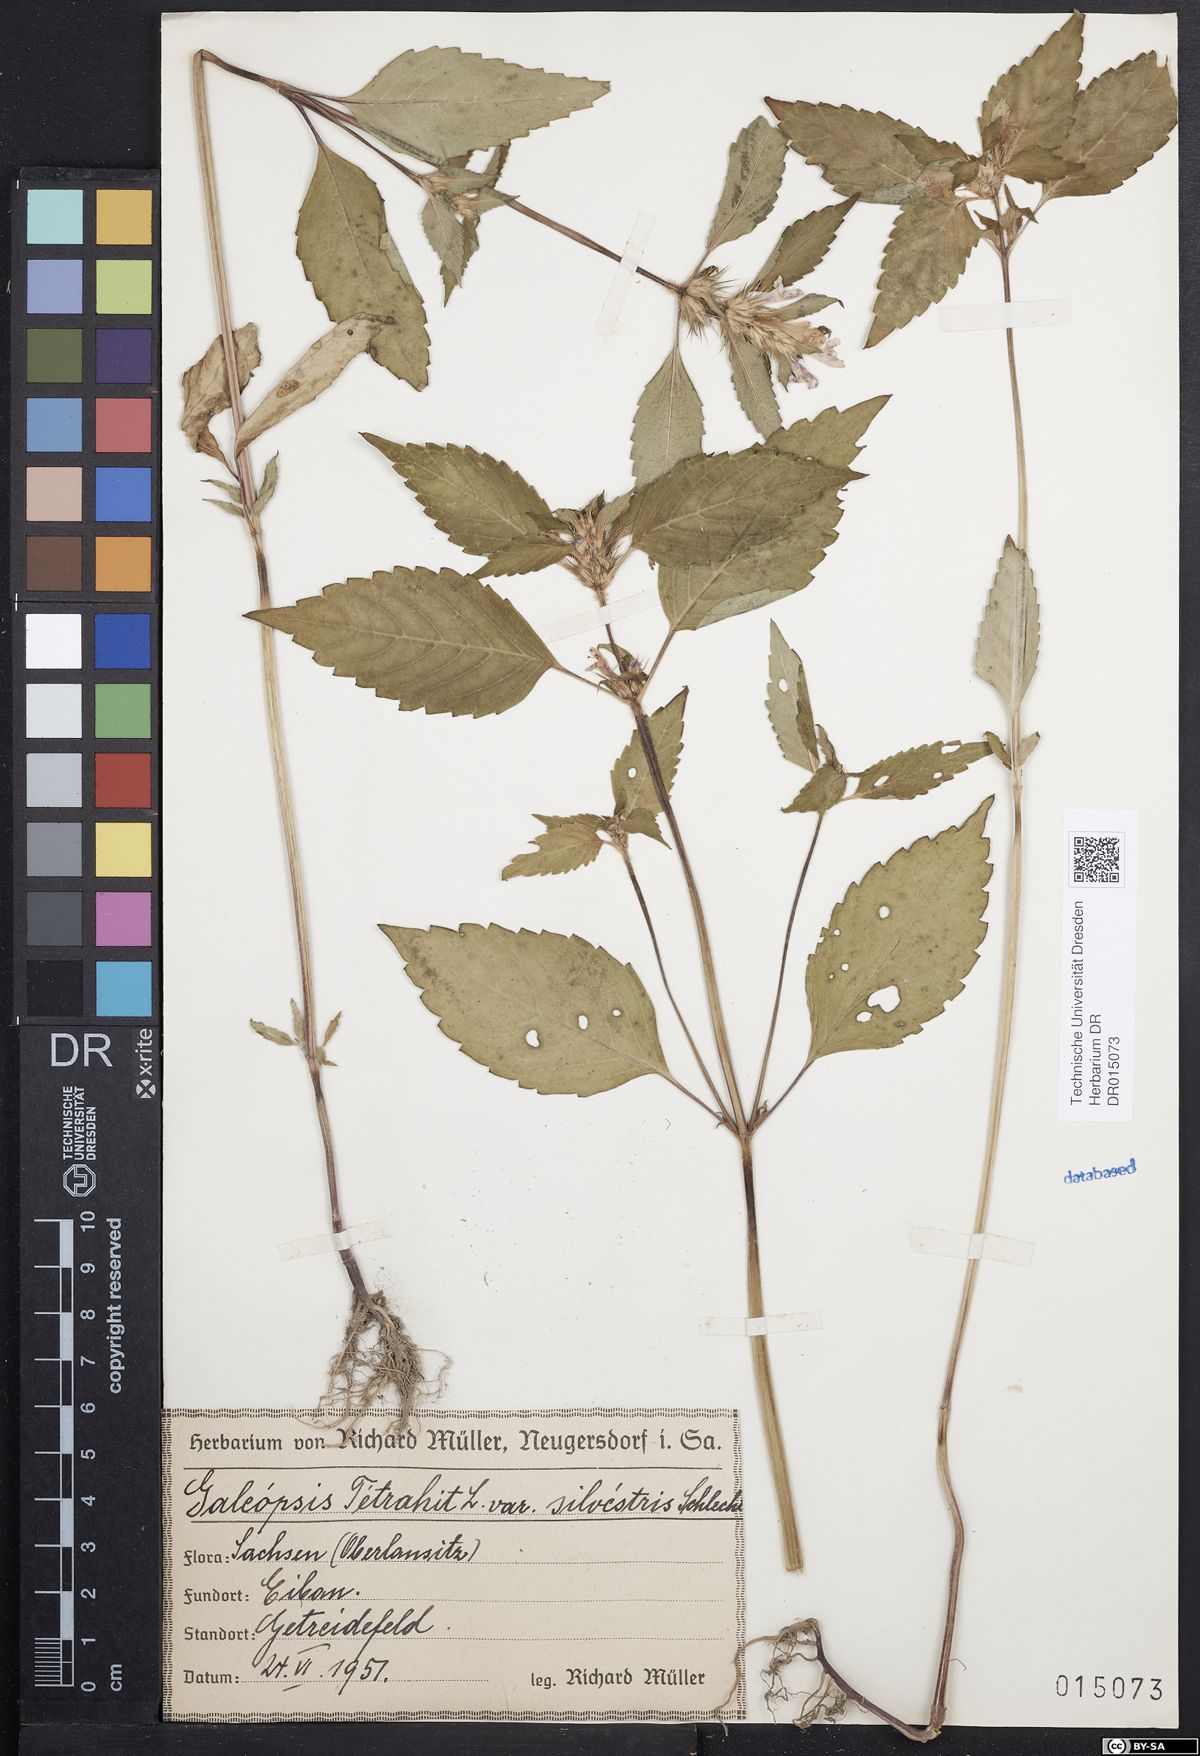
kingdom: Plantae
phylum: Tracheophyta
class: Magnoliopsida
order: Lamiales
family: Lamiaceae
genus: Galeopsis
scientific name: Galeopsis tetrahit
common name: Common hemp-nettle
